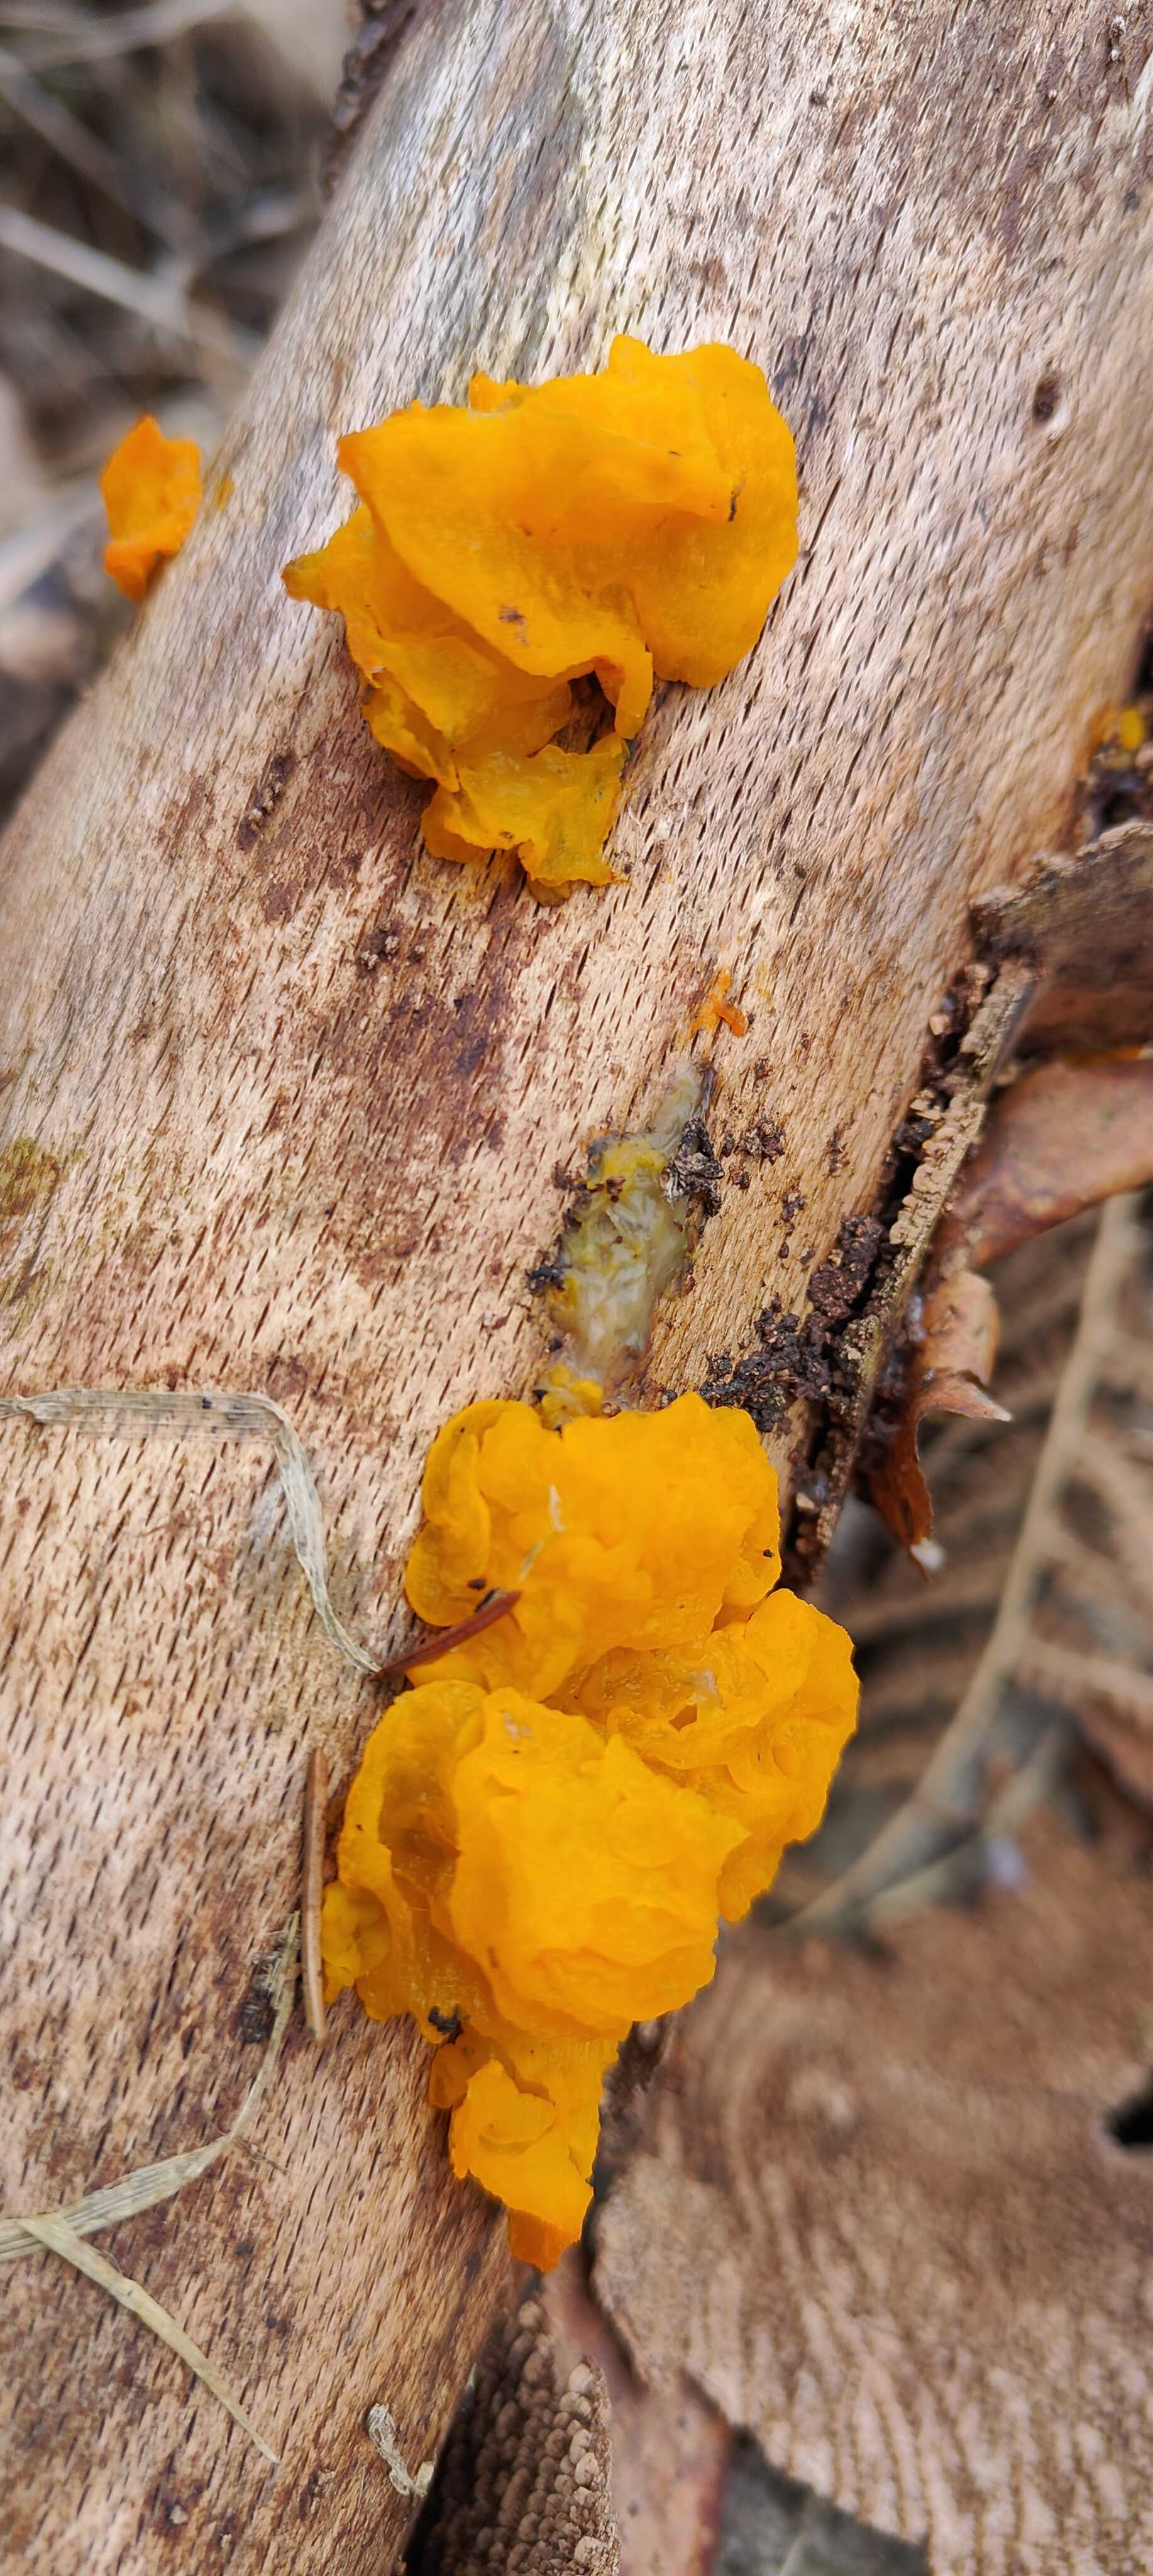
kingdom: Fungi
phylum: Basidiomycota
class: Tremellomycetes
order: Tremellales
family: Tremellaceae
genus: Tremella
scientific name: Tremella mesenterica
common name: gul bævresvamp
